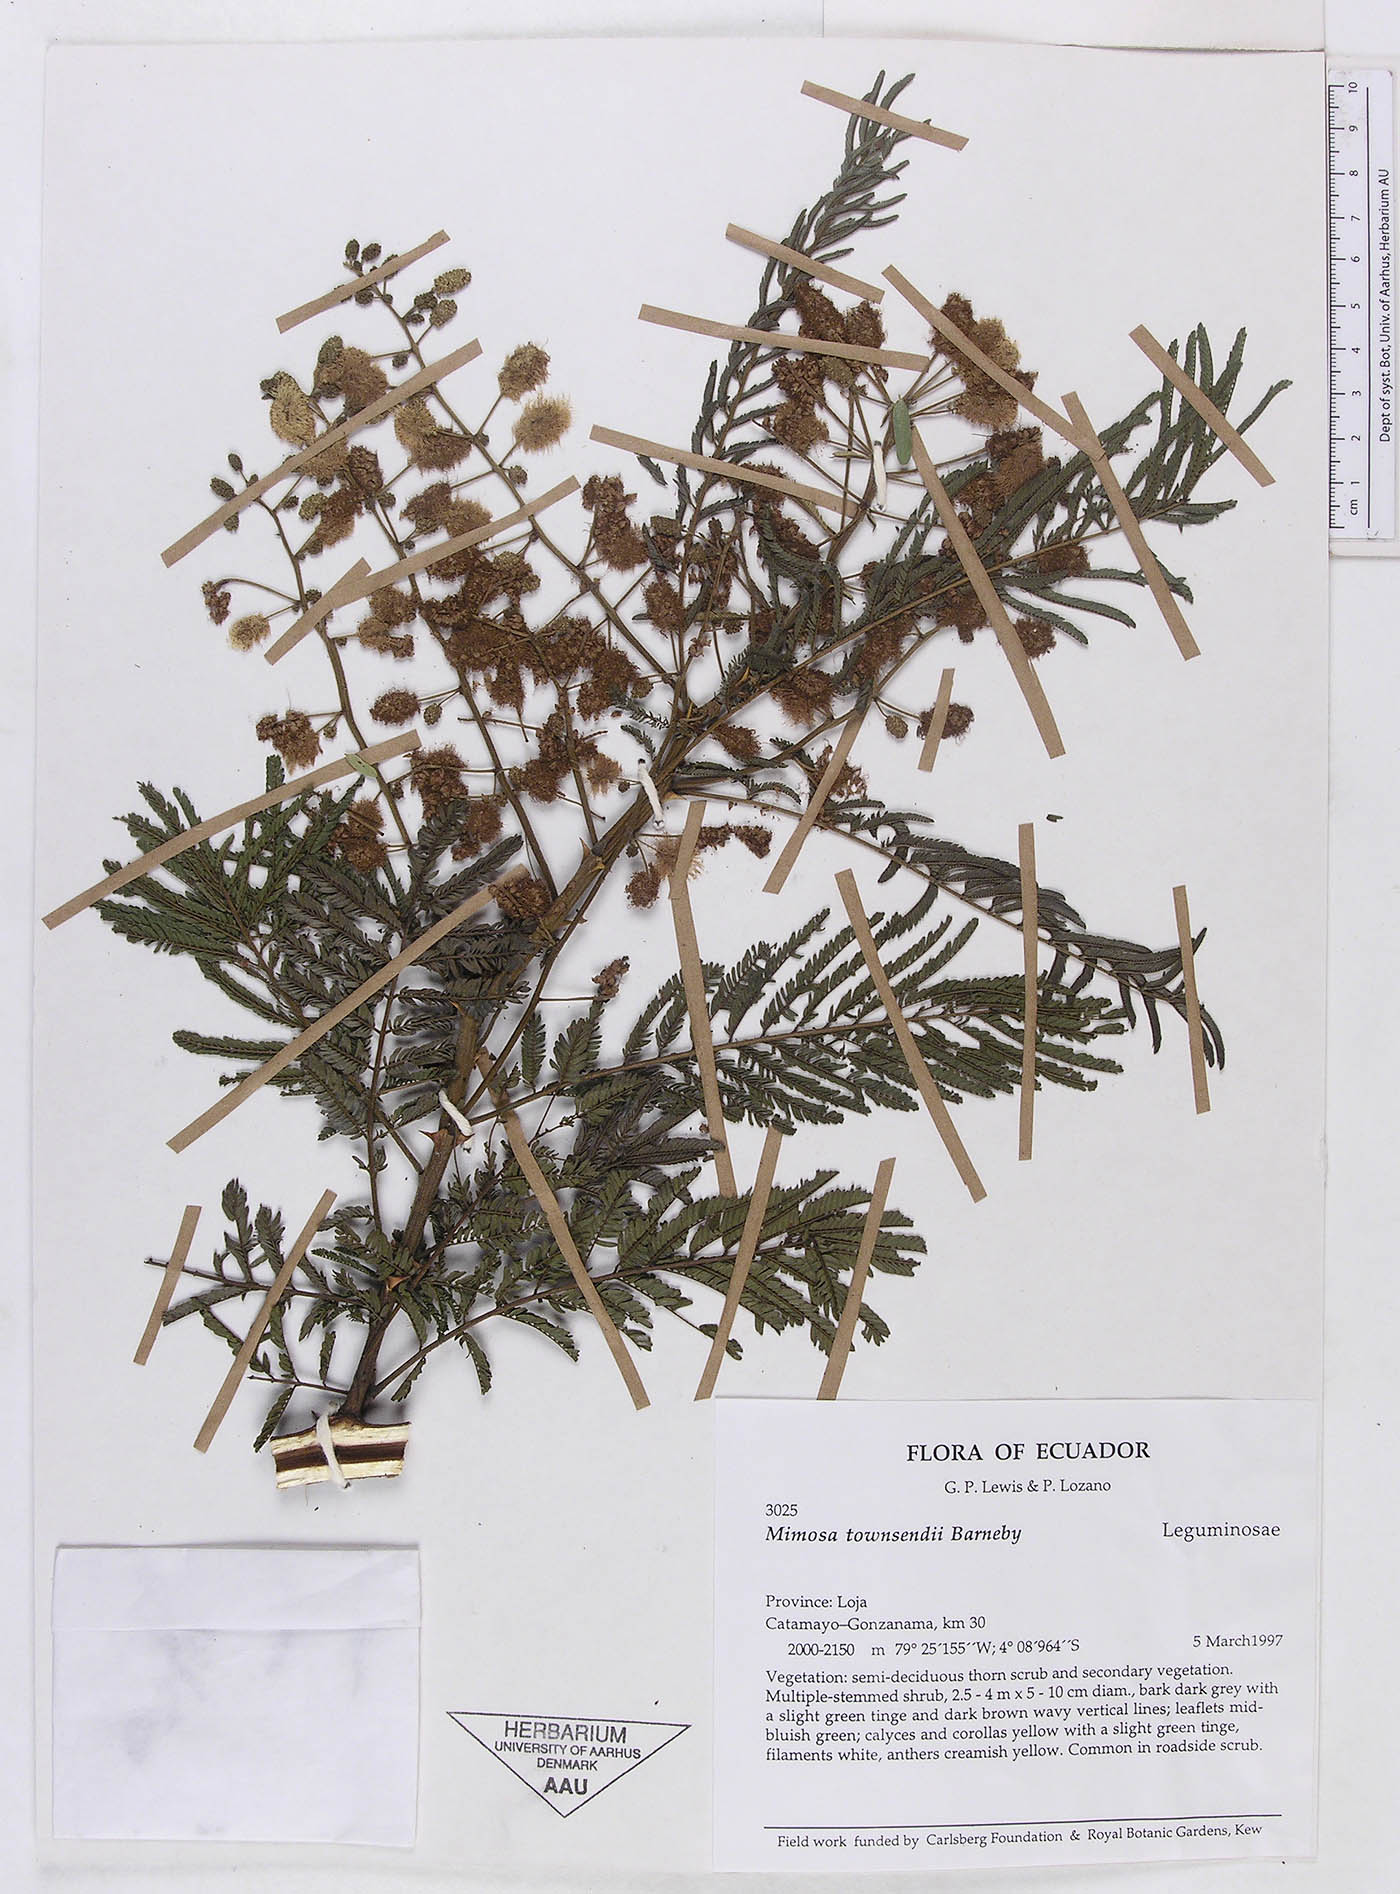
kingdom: Plantae
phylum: Tracheophyta
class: Magnoliopsida
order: Fabales
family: Fabaceae
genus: Mimosa
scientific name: Mimosa townsendii
